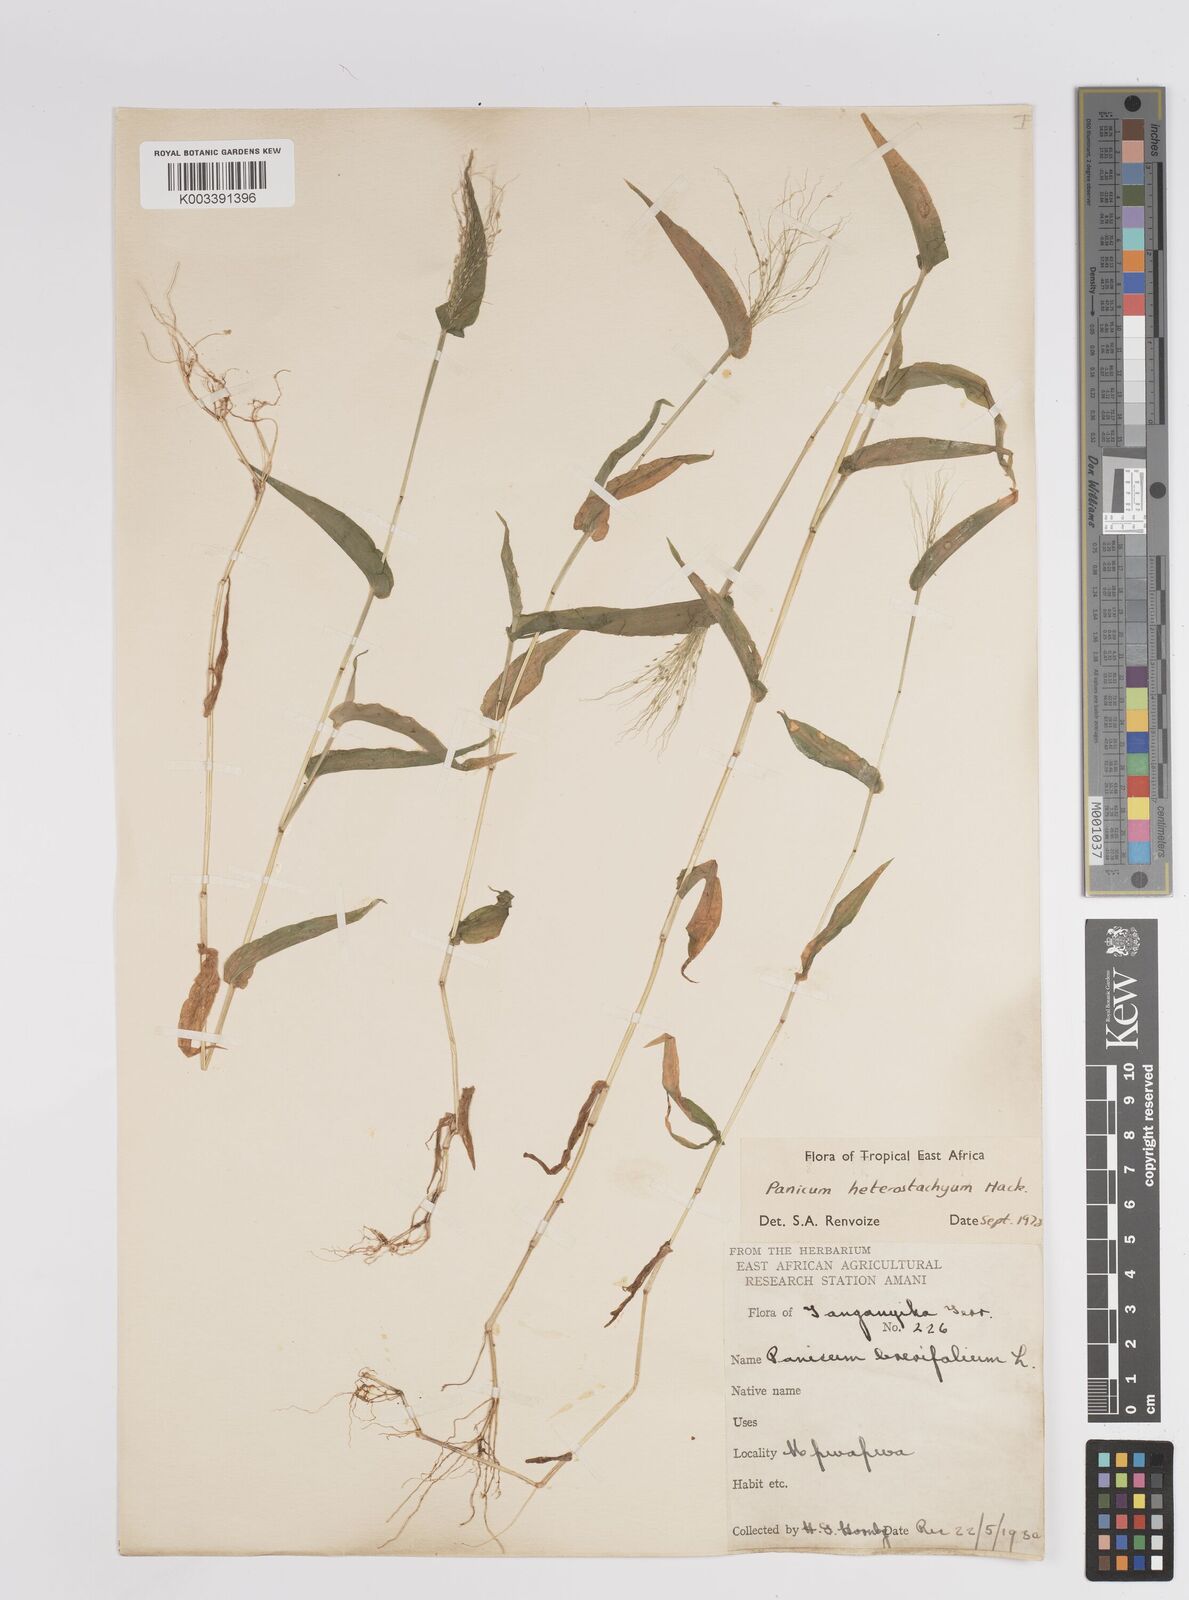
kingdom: Plantae
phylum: Tracheophyta
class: Liliopsida
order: Poales
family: Poaceae
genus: Panicum
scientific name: Panicum hirtum
